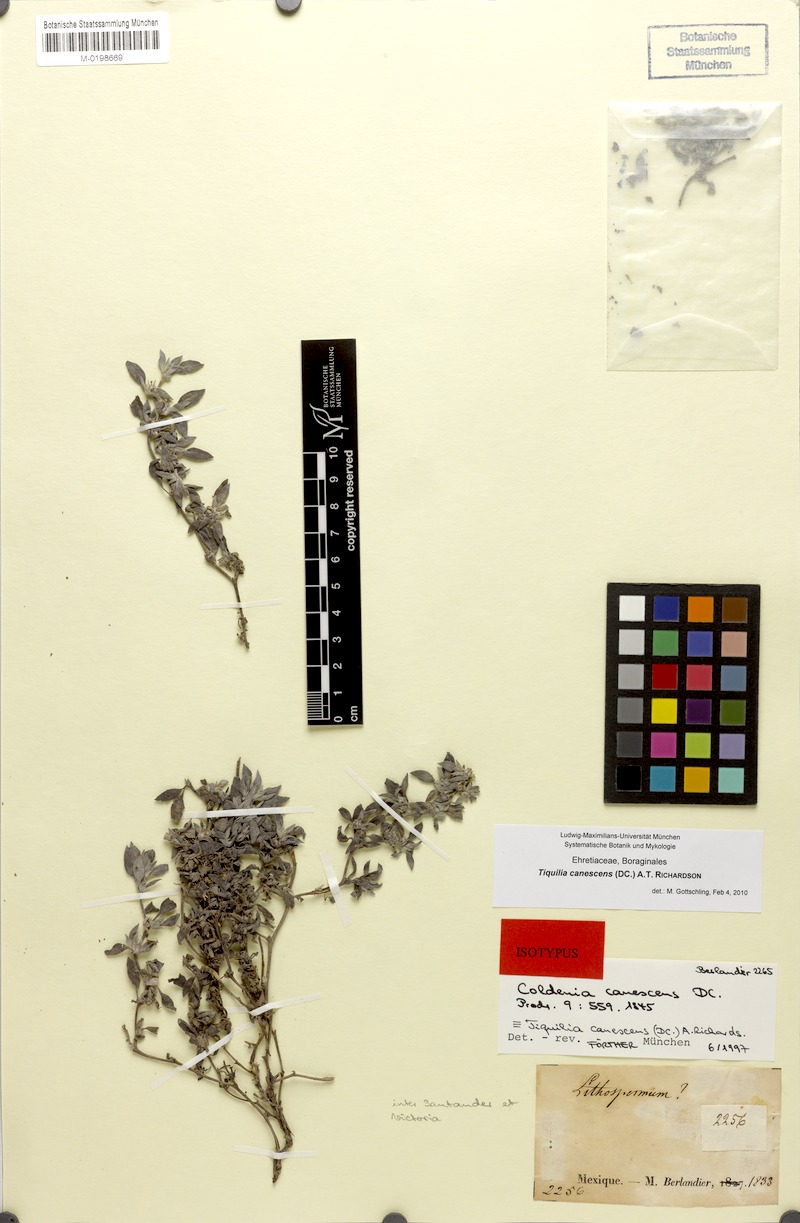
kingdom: Plantae
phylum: Tracheophyta
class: Magnoliopsida
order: Boraginales
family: Ehretiaceae
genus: Tiquilia
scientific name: Tiquilia canescens
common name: Hairy tiquilia
